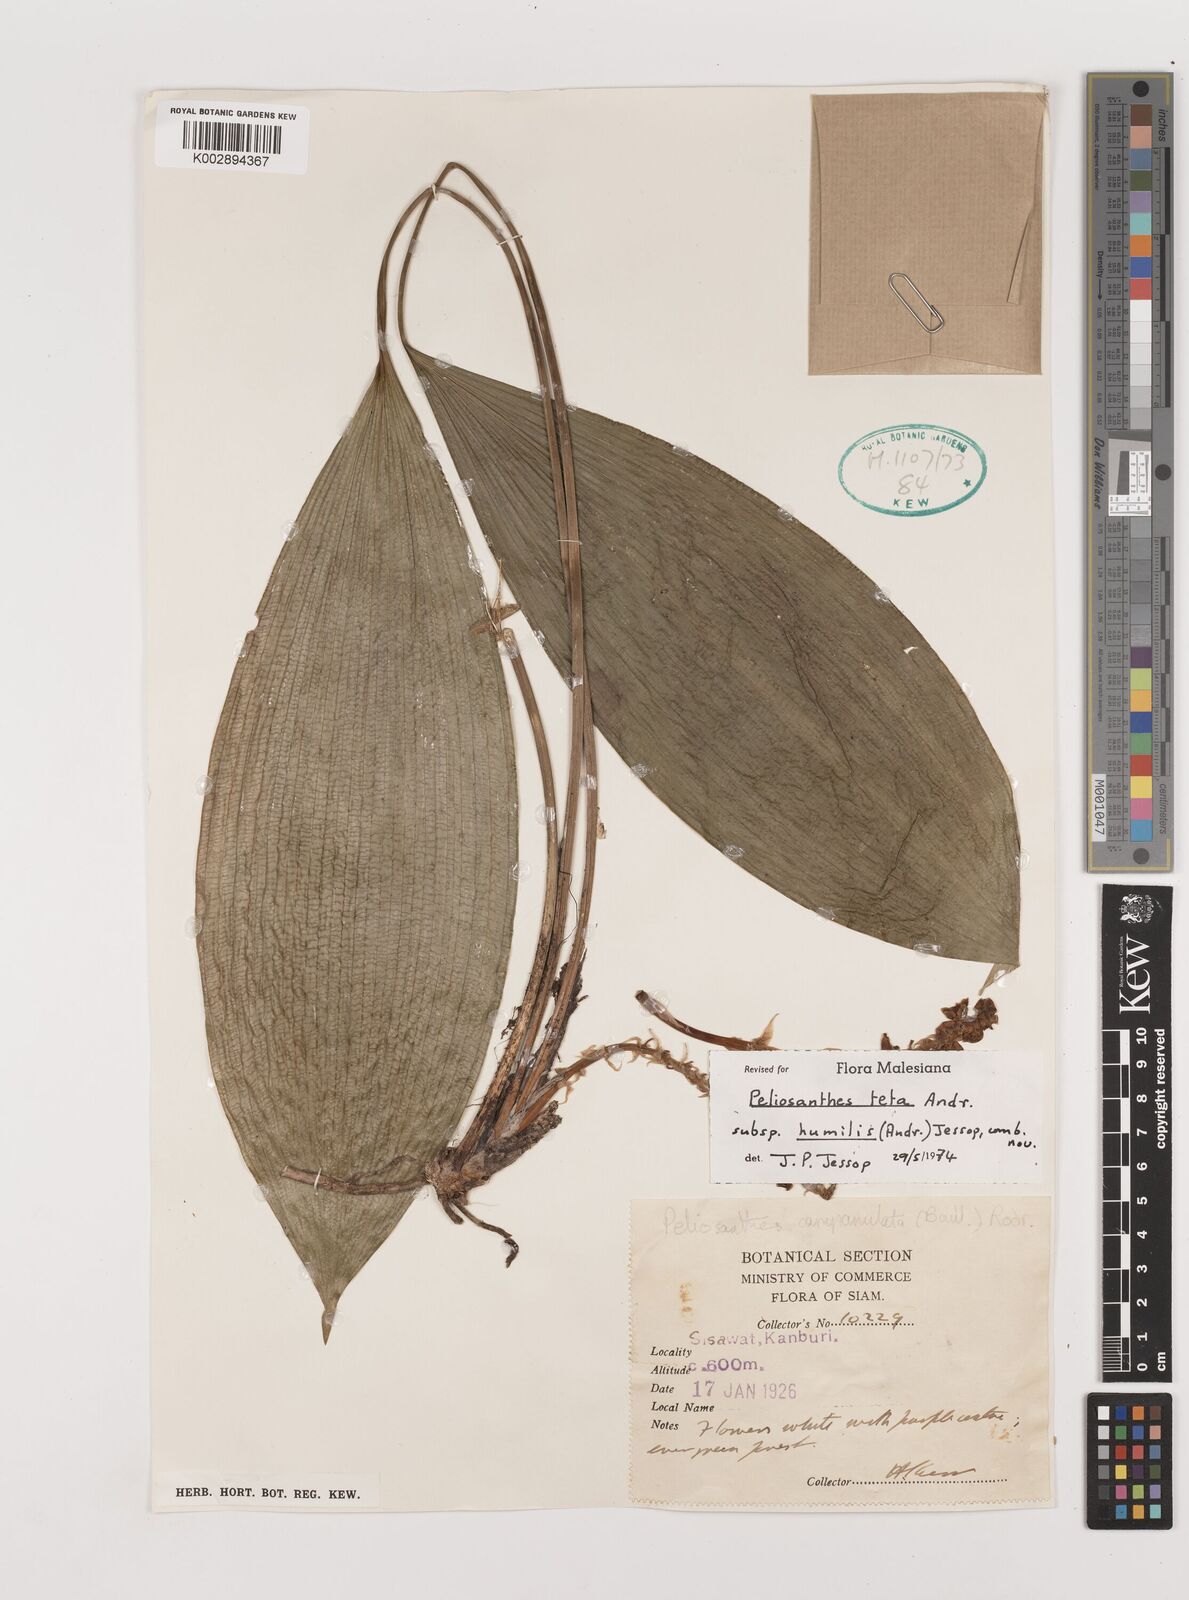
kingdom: Plantae
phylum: Tracheophyta
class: Liliopsida
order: Asparagales
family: Asparagaceae
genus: Peliosanthes
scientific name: Peliosanthes teta
